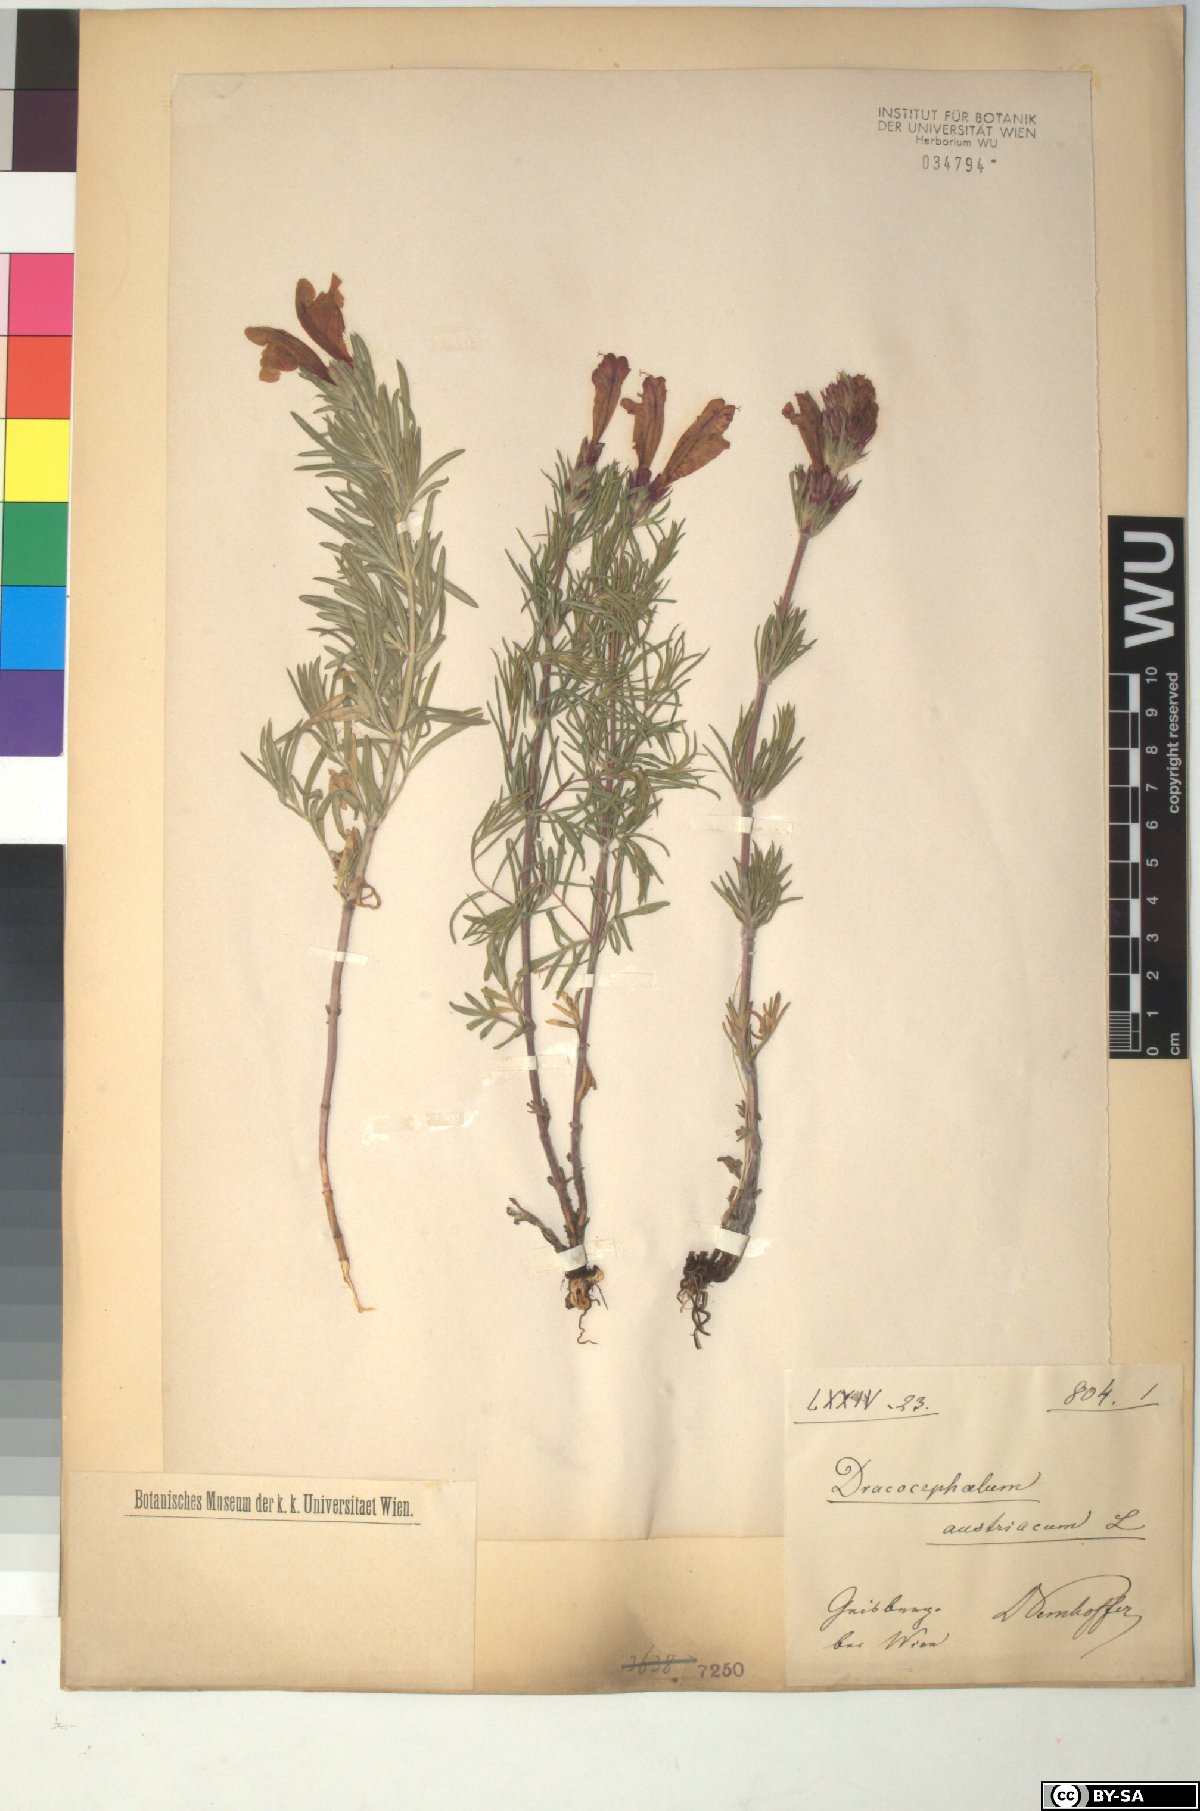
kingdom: Plantae
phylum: Tracheophyta
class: Magnoliopsida
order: Lamiales
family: Lamiaceae
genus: Dracocephalum
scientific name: Dracocephalum austriacum
